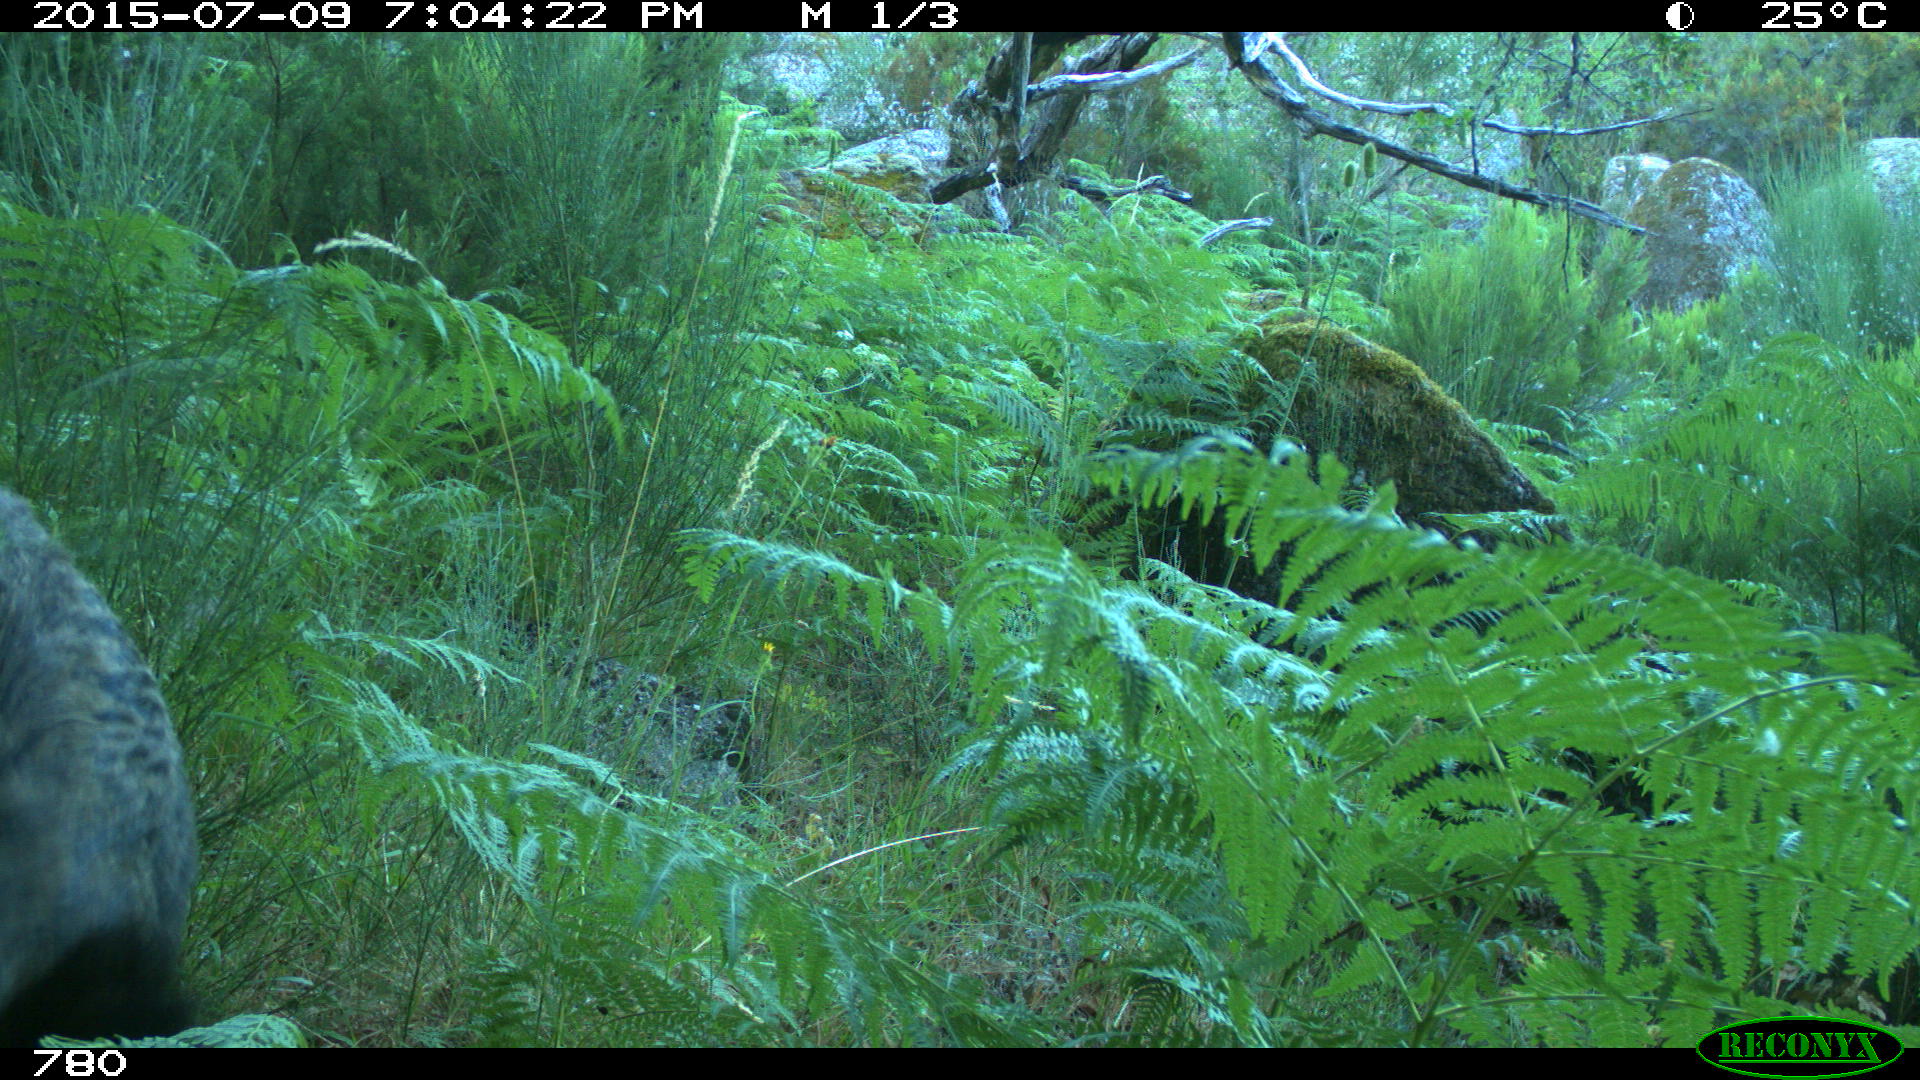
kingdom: Animalia
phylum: Chordata
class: Mammalia
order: Artiodactyla
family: Suidae
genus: Sus
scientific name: Sus scrofa
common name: Wild boar
